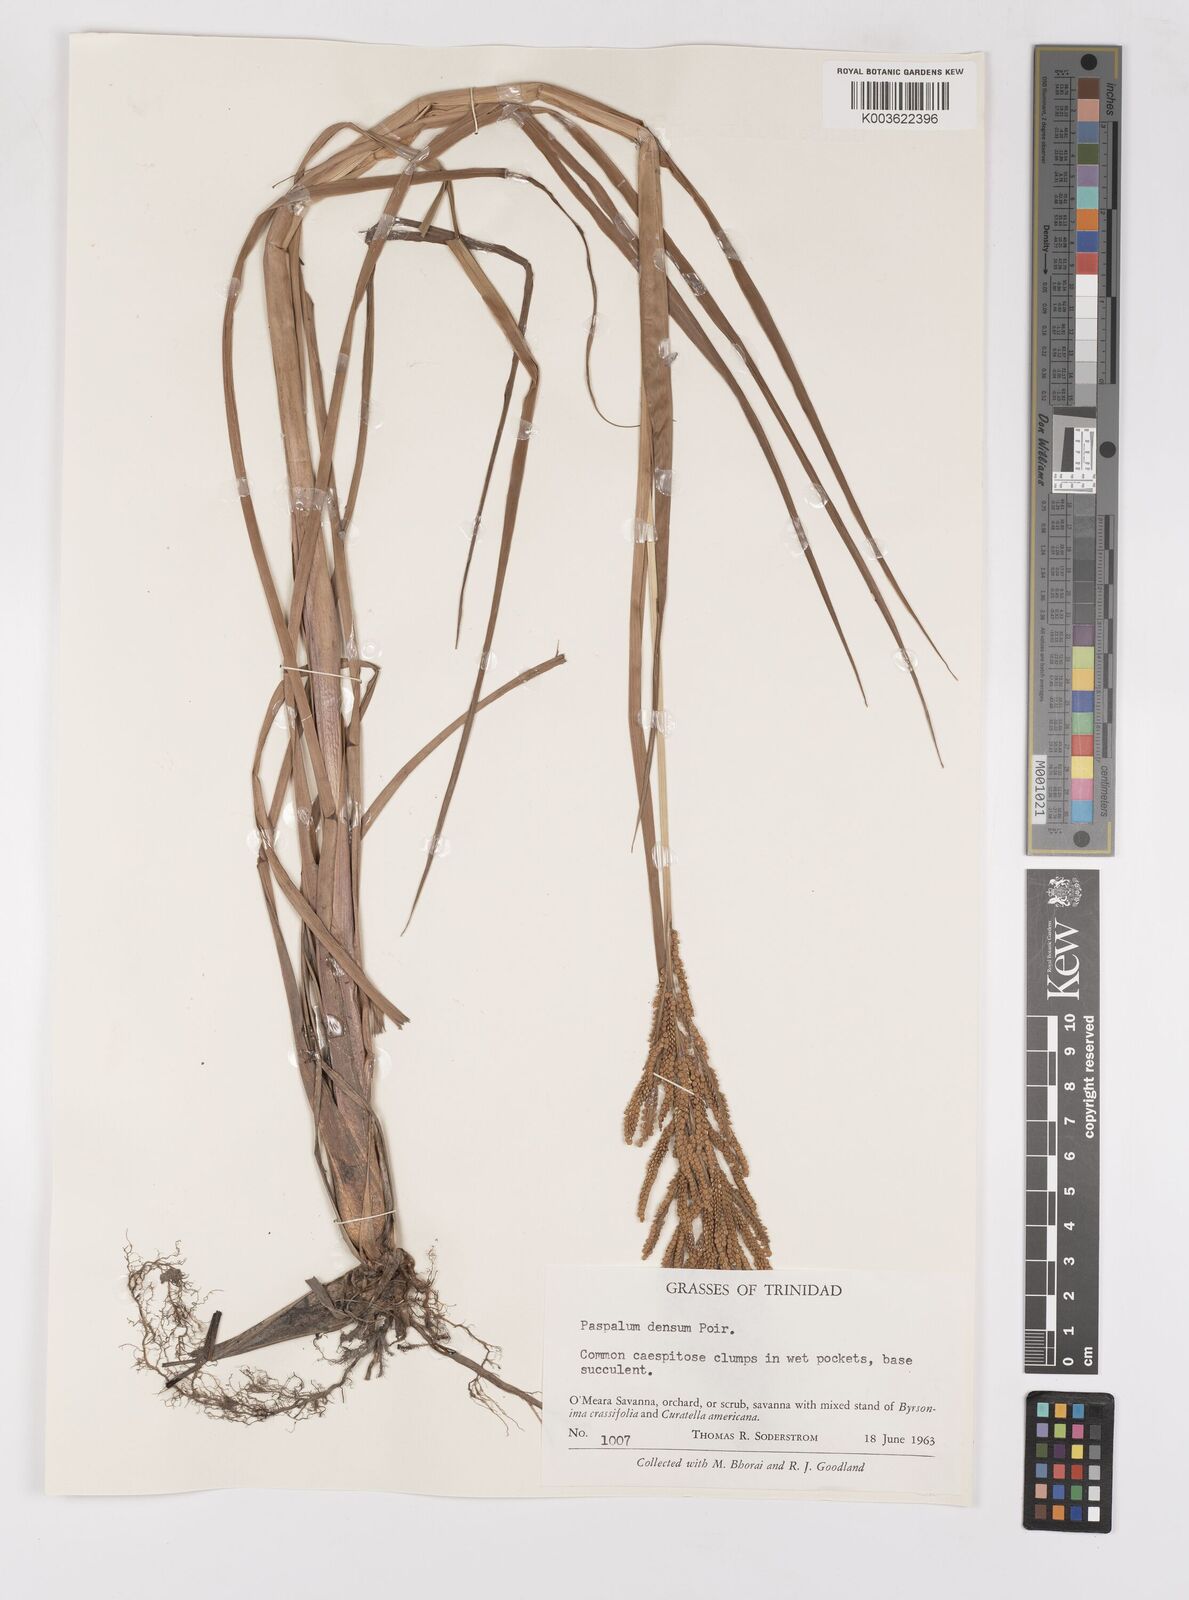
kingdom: Plantae
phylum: Tracheophyta
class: Liliopsida
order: Poales
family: Poaceae
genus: Paspalum
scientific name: Paspalum densum
